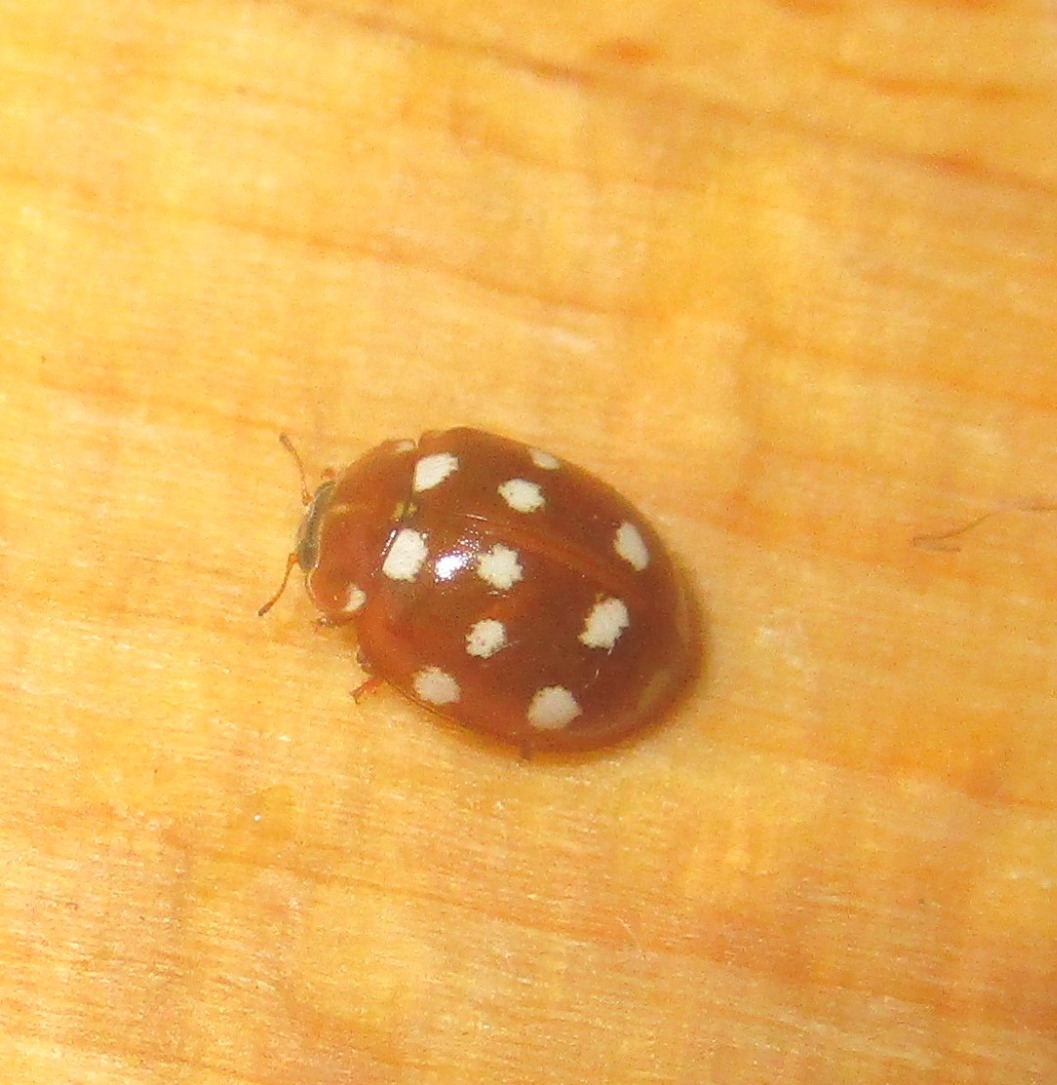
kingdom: Animalia
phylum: Arthropoda
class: Insecta
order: Coleoptera
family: Coccinellidae
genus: Calvia
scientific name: Calvia quatuordecimguttata
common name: Fjortenplettet mariehøne
